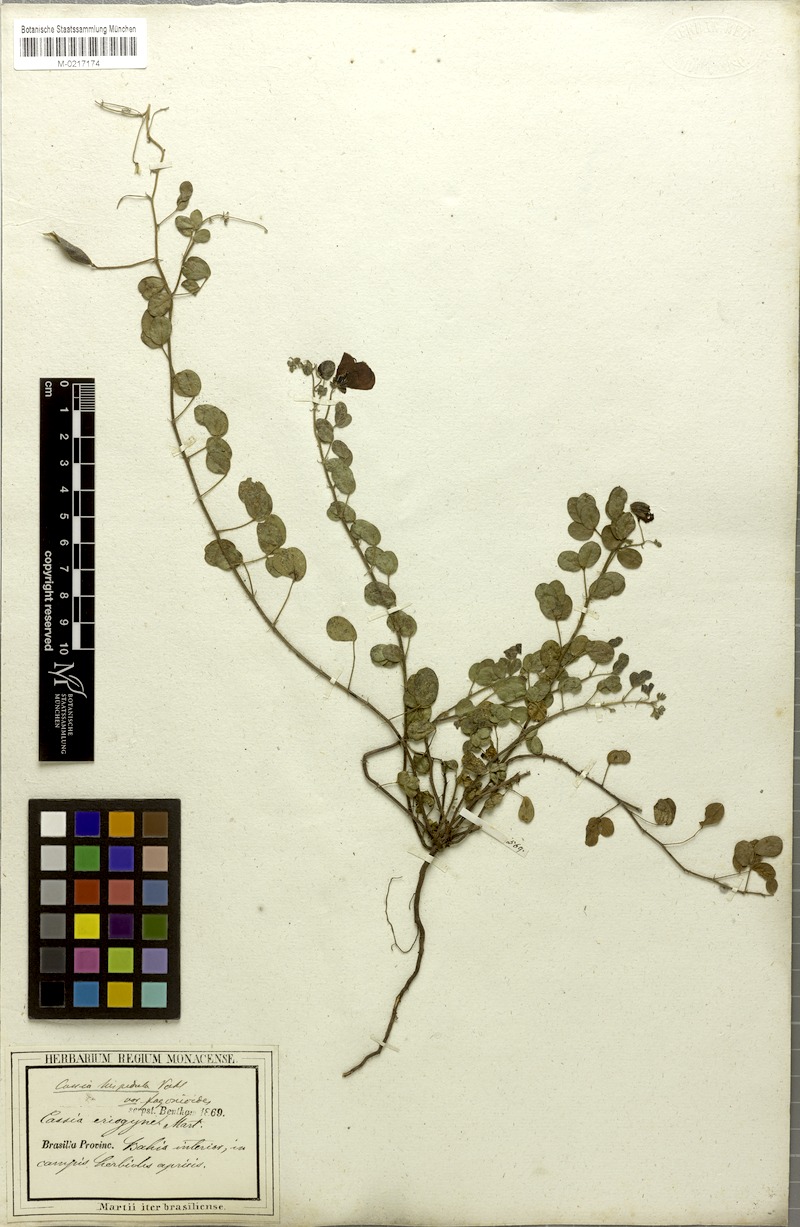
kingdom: Plantae
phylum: Tracheophyta
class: Magnoliopsida
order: Fabales
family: Fabaceae
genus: Chamaecrista
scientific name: Chamaecrista fagonioides
